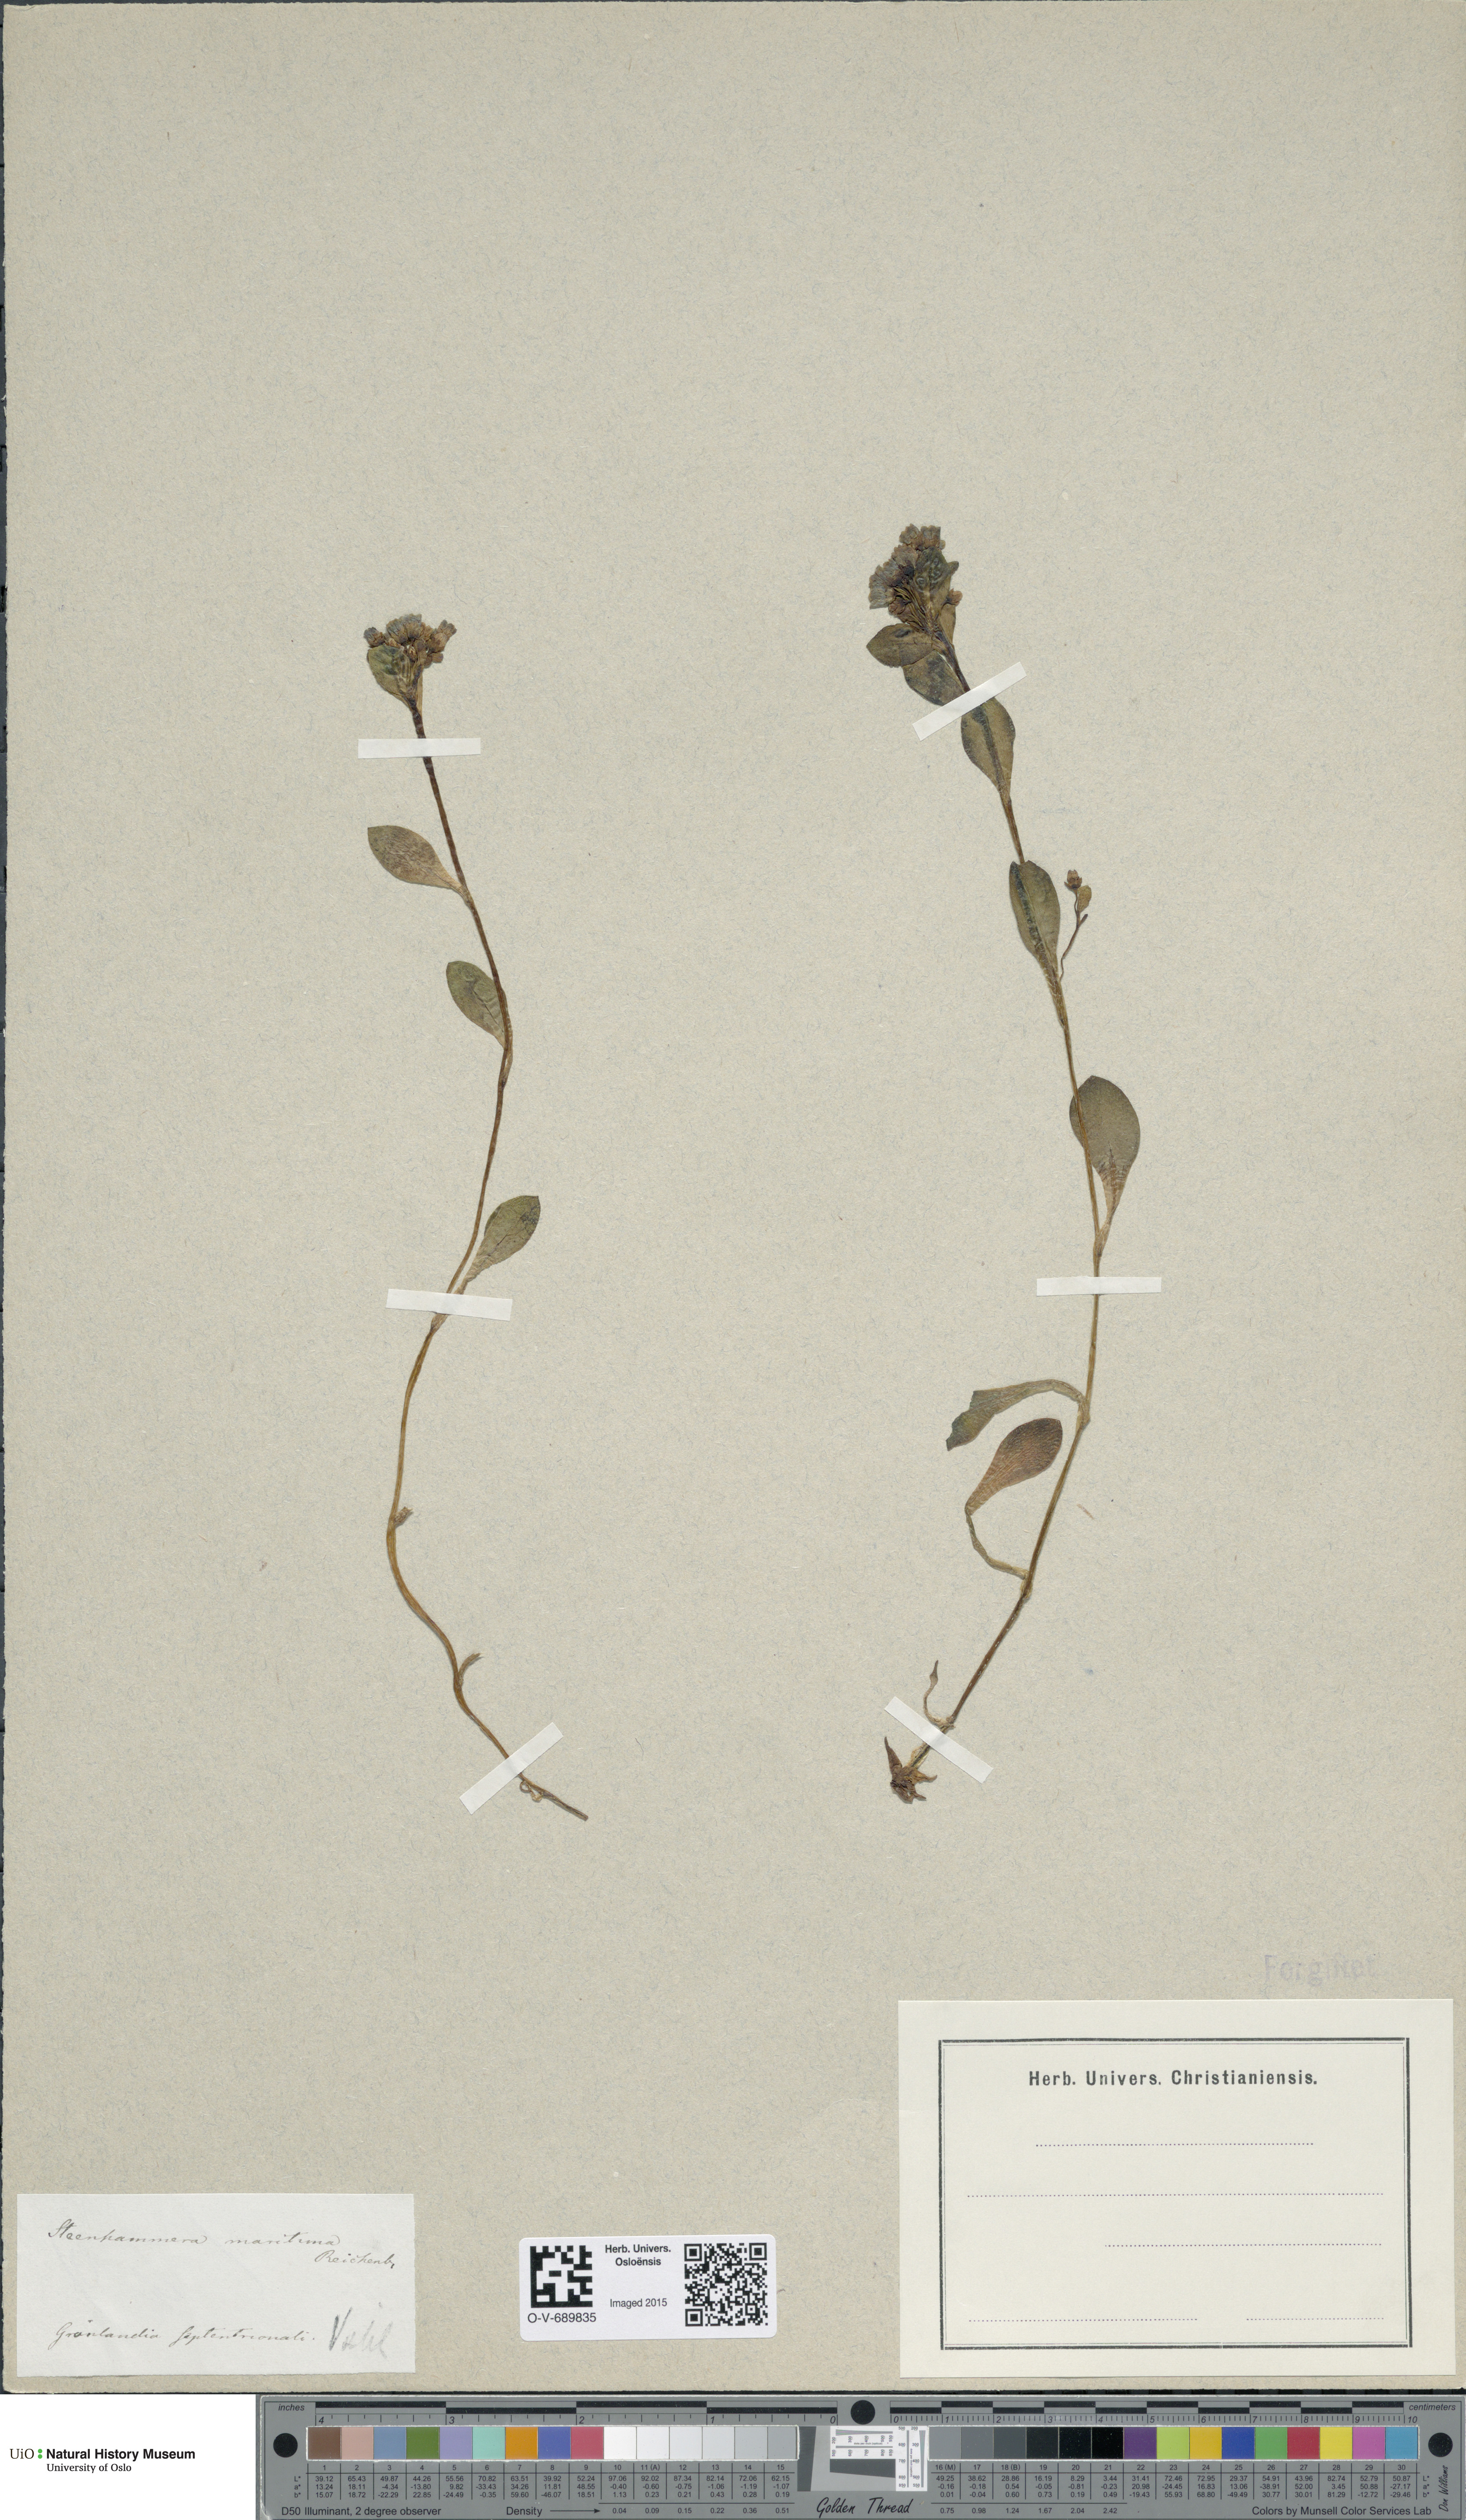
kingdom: Plantae
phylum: Tracheophyta
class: Magnoliopsida
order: Boraginales
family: Boraginaceae
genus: Mertensia
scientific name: Mertensia maritima
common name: Oysterplant
